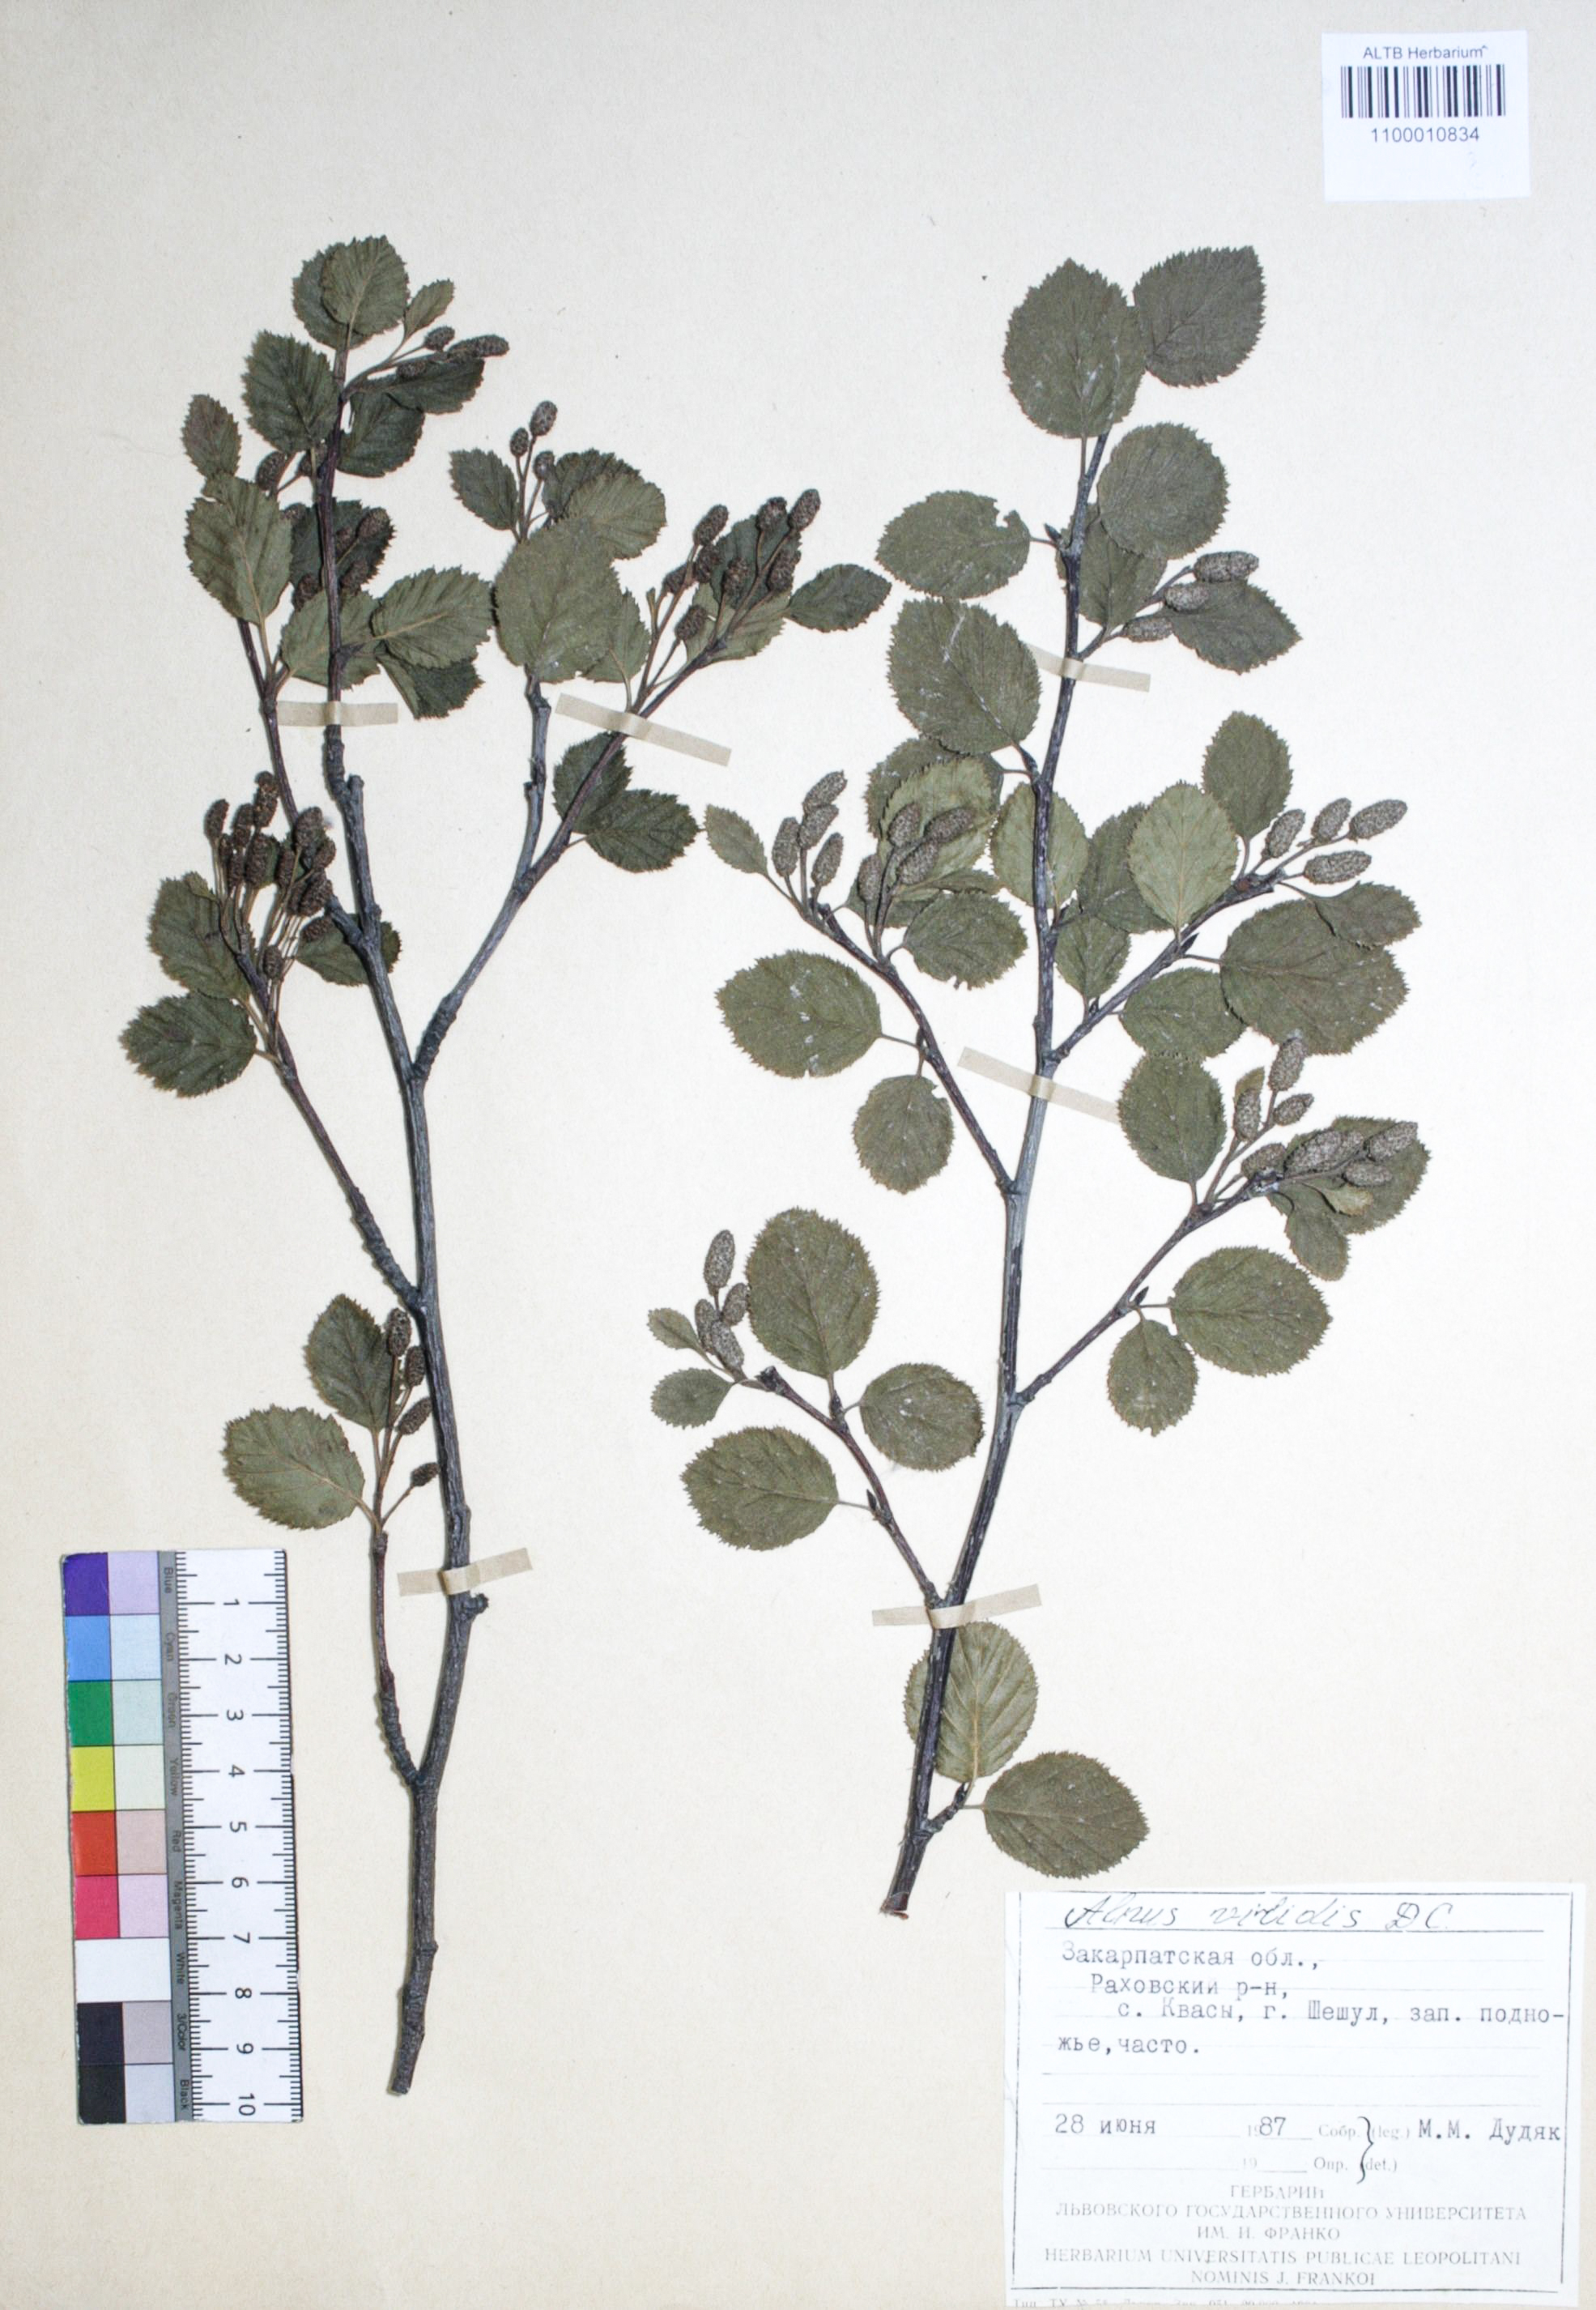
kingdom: Plantae
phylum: Tracheophyta
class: Magnoliopsida
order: Fagales
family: Betulaceae
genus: Alnus
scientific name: Alnus alnobetula
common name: Green alder
